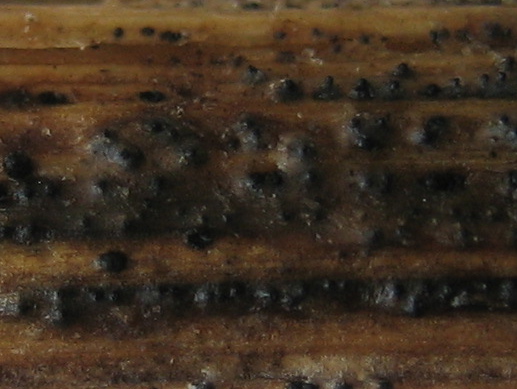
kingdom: Fungi
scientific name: Fungi
